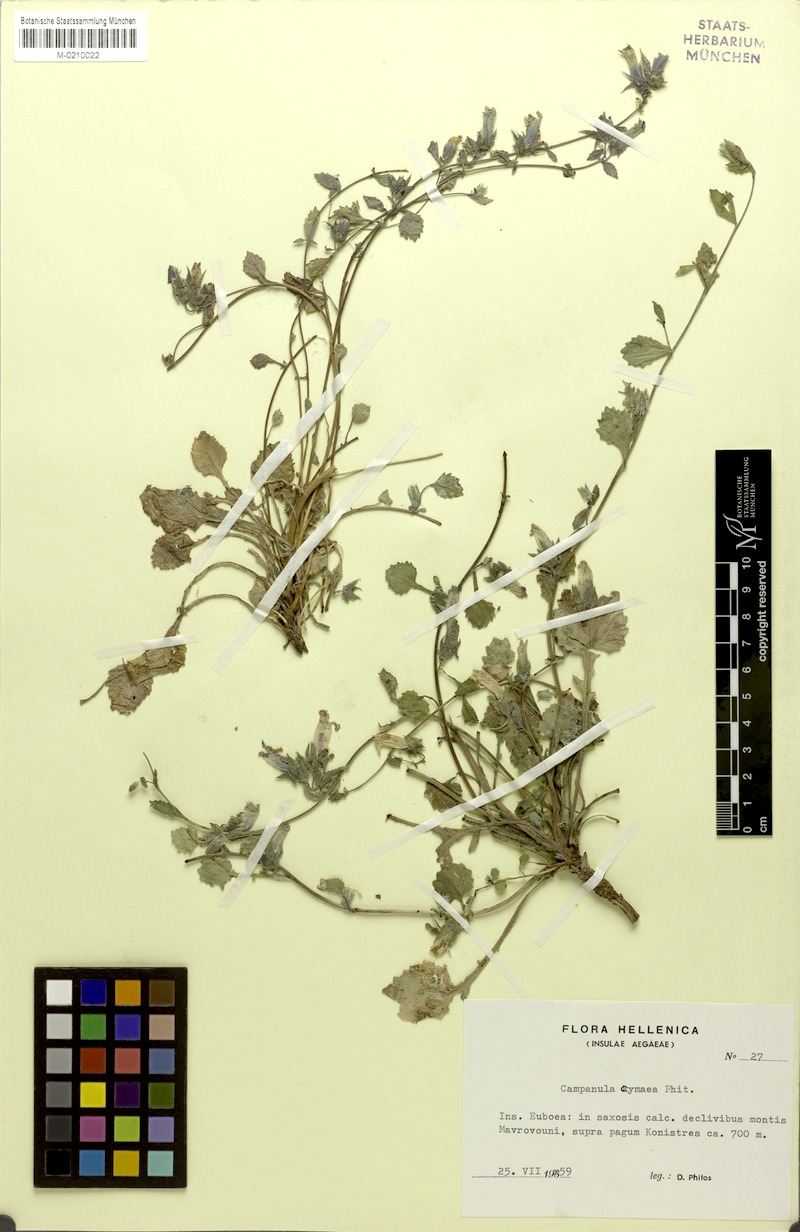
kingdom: Plantae
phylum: Tracheophyta
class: Magnoliopsida
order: Asterales
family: Campanulaceae
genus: Campanula
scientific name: Campanula cymaea
